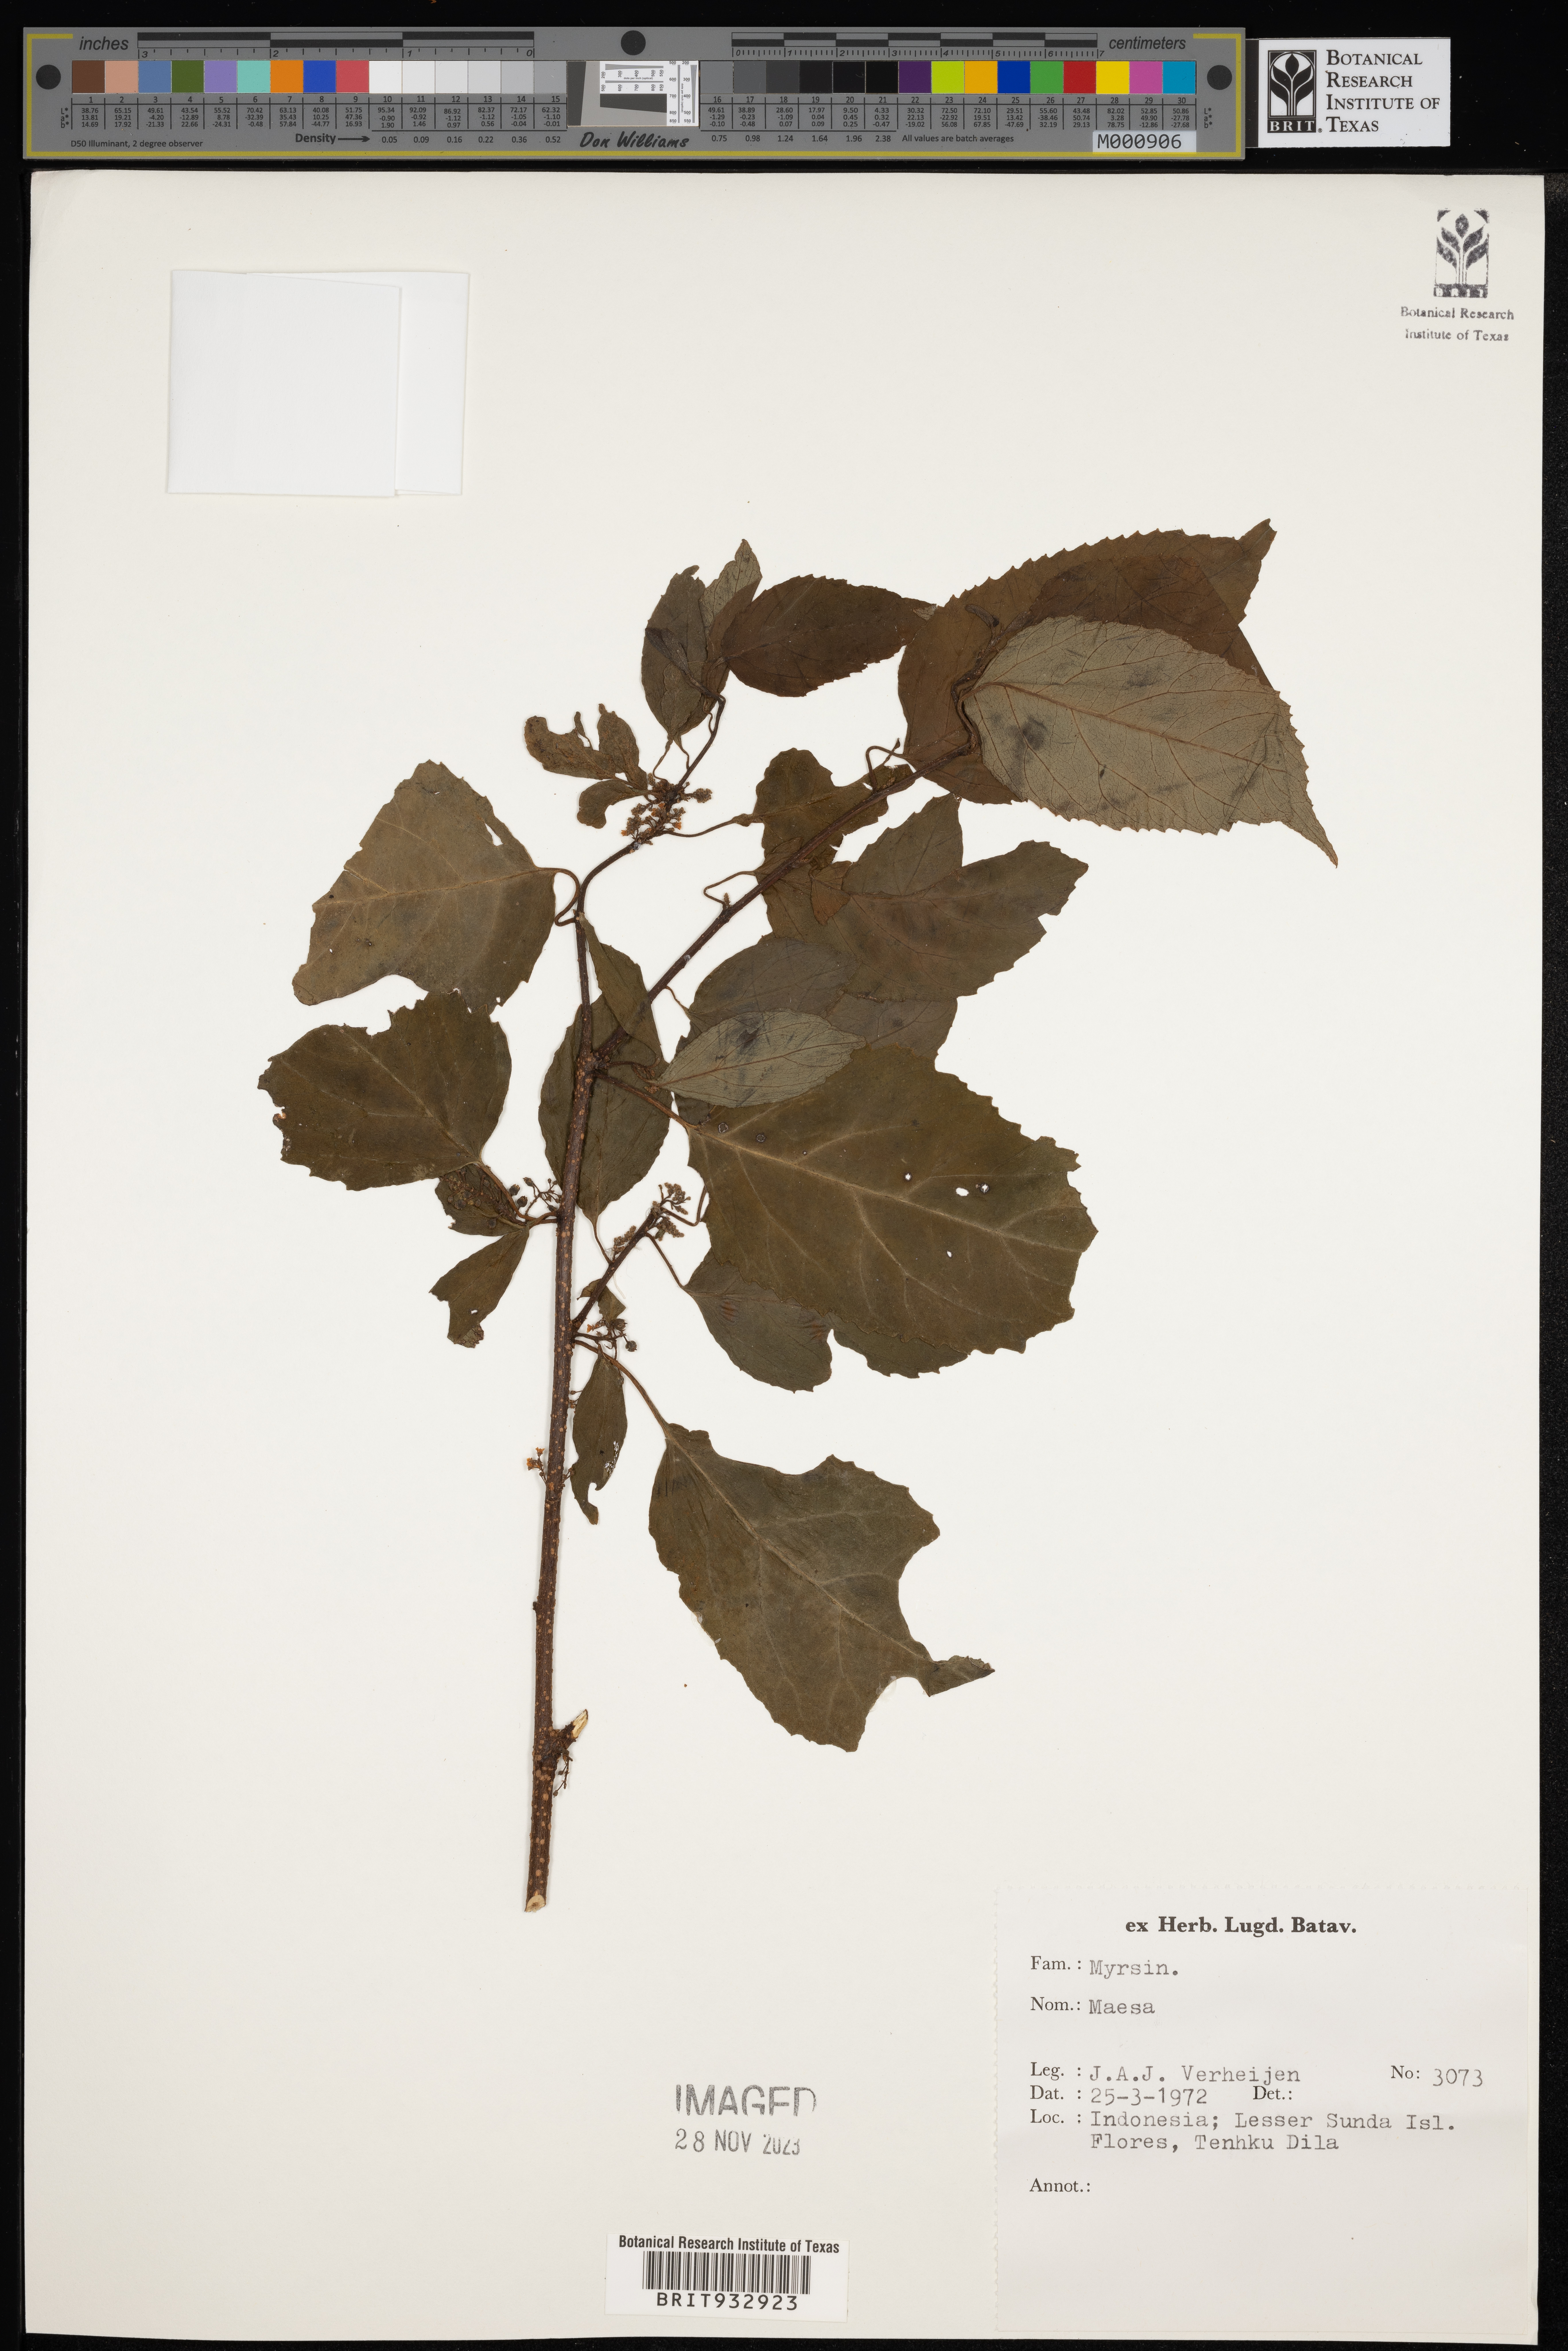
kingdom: Plantae
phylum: Tracheophyta
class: Magnoliopsida
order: Ericales
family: Primulaceae
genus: Maesa
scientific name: Maesa
